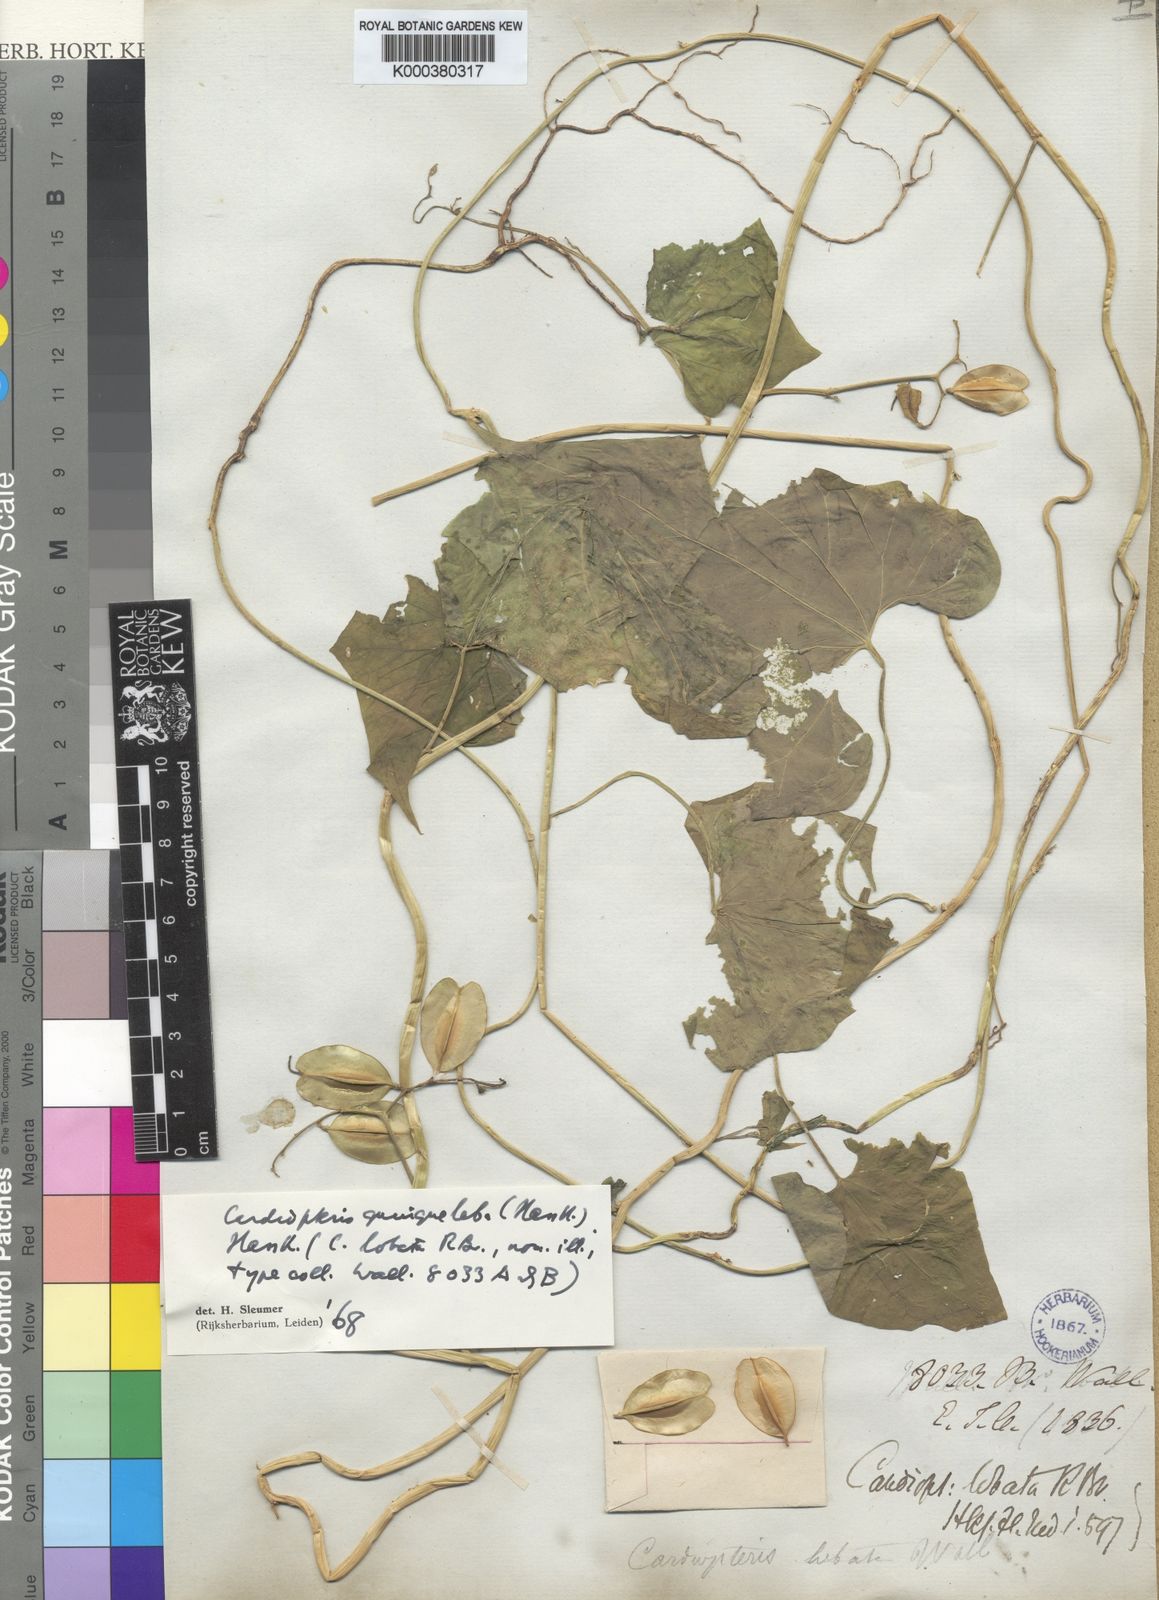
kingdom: Plantae
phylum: Tracheophyta
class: Magnoliopsida
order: Cardiopteridales
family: Cardiopteridaceae
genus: Cardiopteris
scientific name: Cardiopteris quinqueloba
